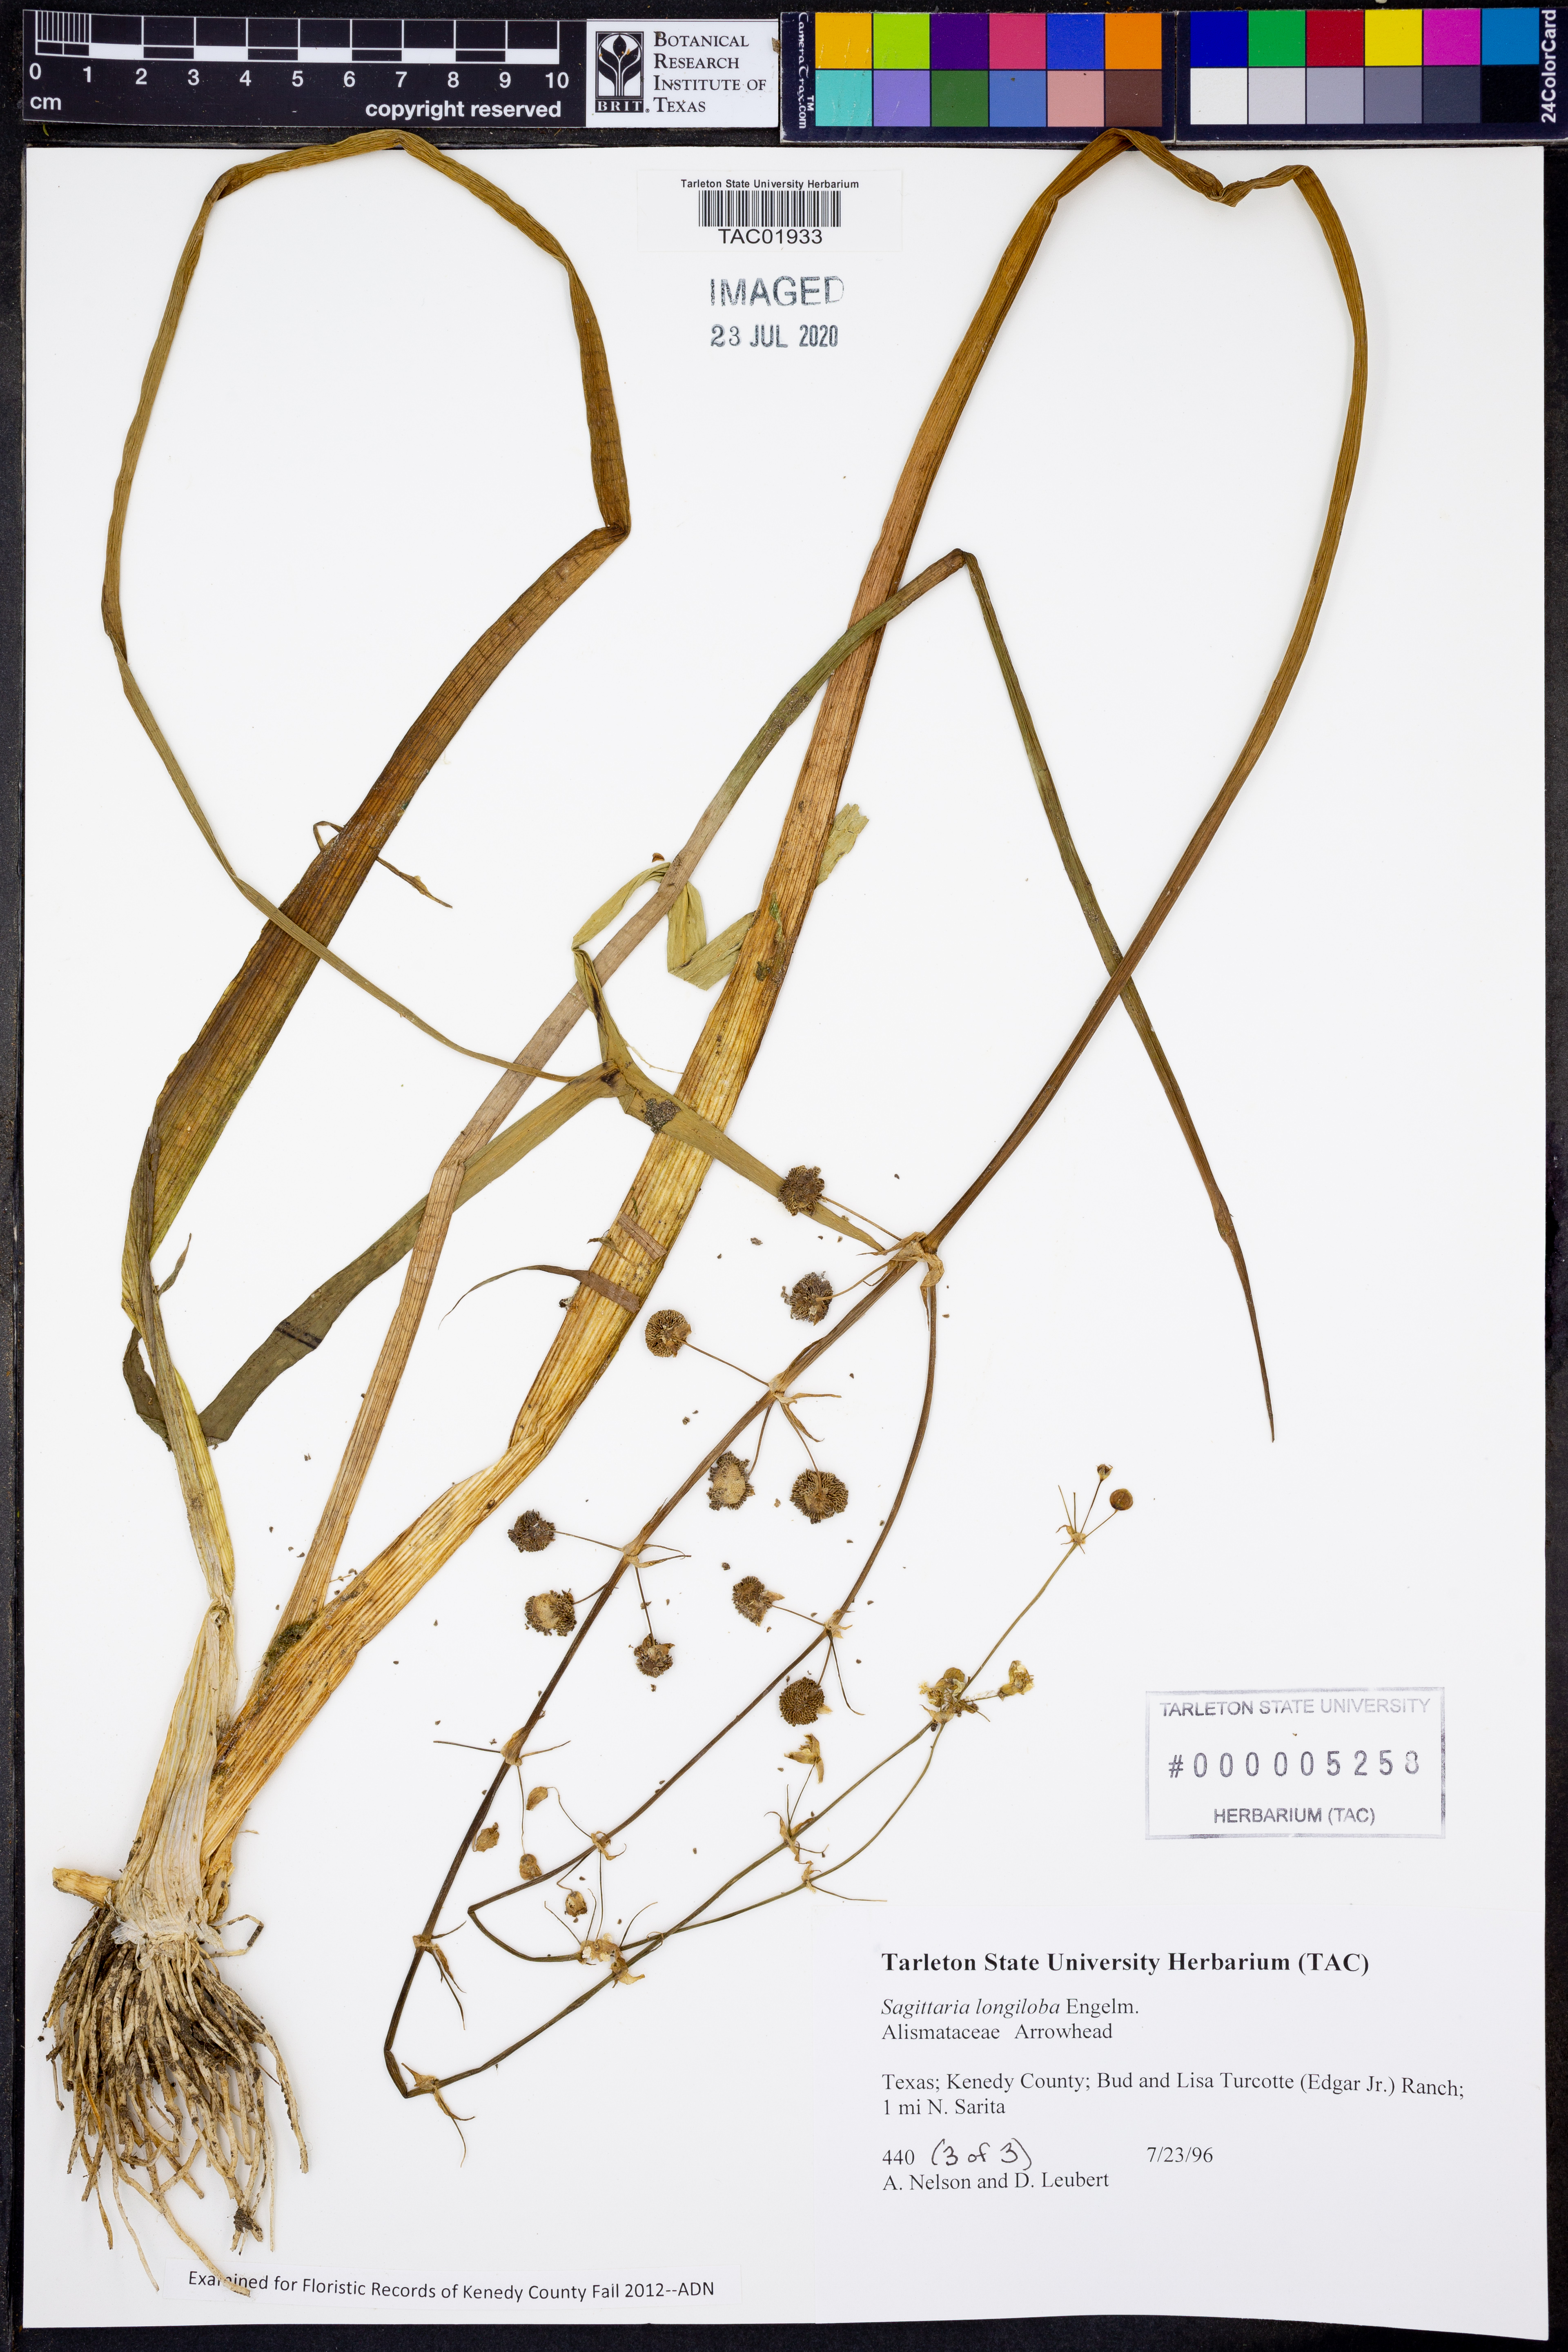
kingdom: Plantae
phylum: Tracheophyta
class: Liliopsida
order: Alismatales
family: Alismataceae
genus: Sagittaria
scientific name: Sagittaria longiloba
